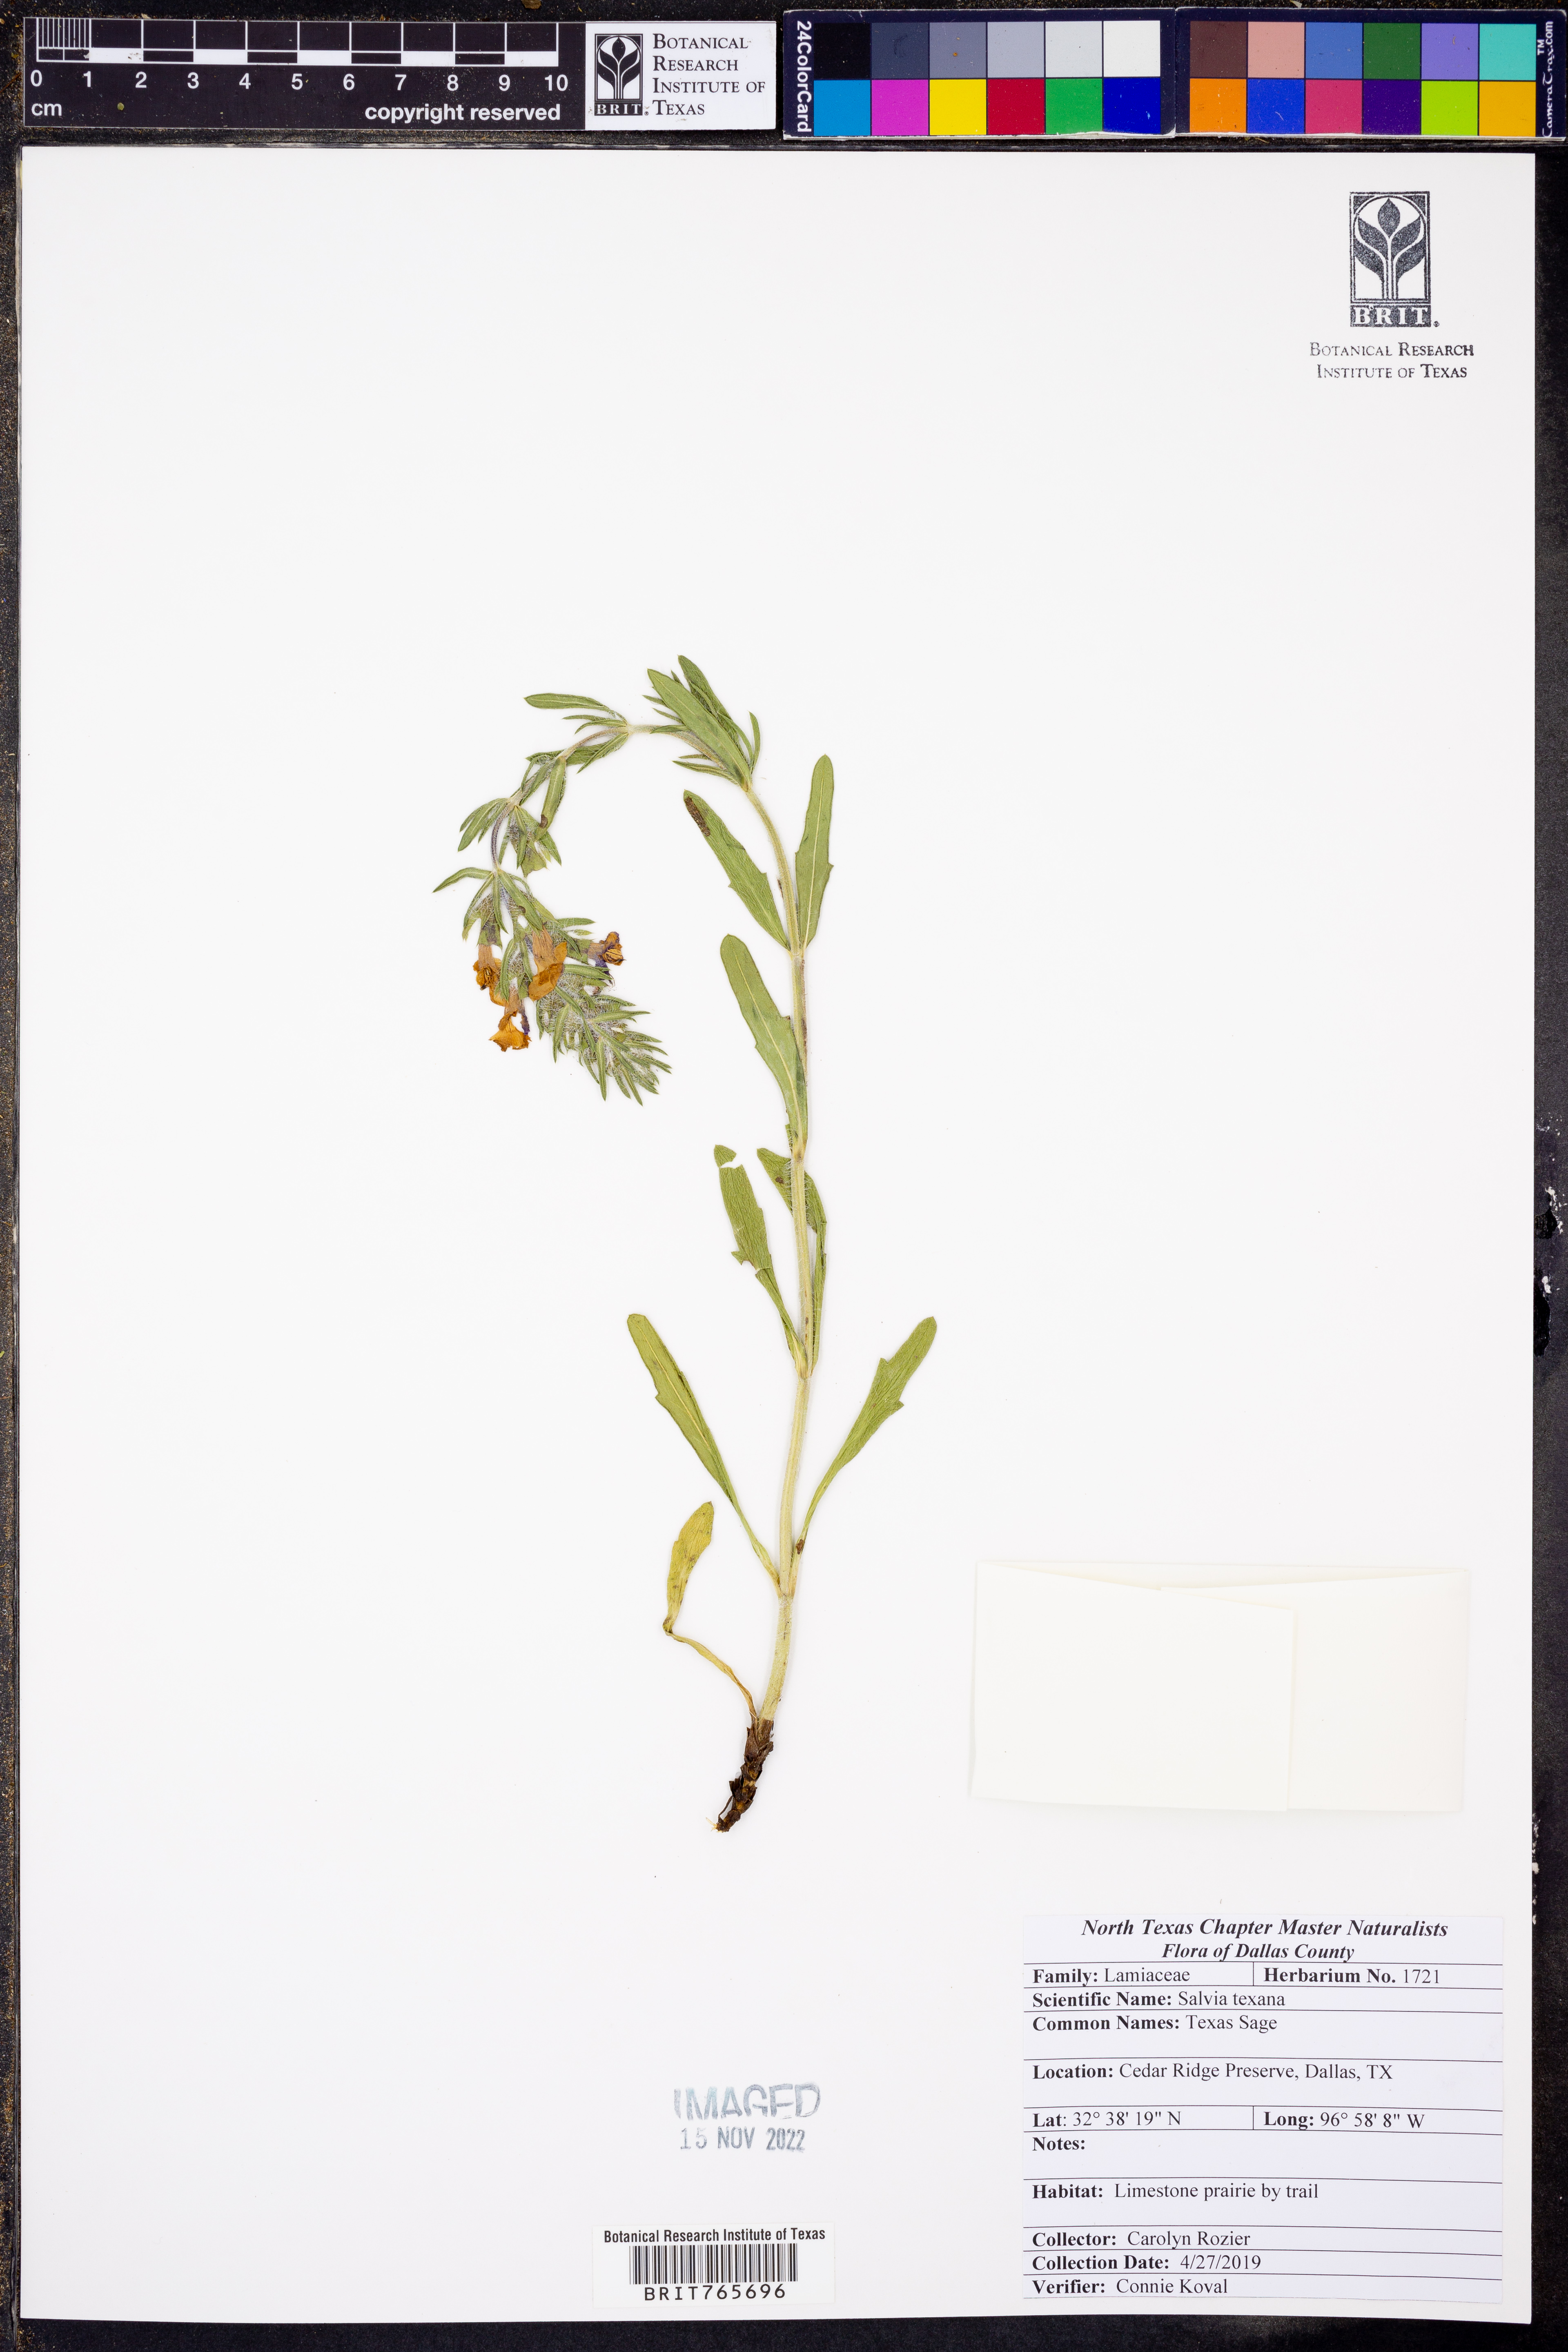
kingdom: Plantae
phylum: Tracheophyta
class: Magnoliopsida
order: Lamiales
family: Lamiaceae
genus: Salvia
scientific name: Salvia texana
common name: Texas sage
